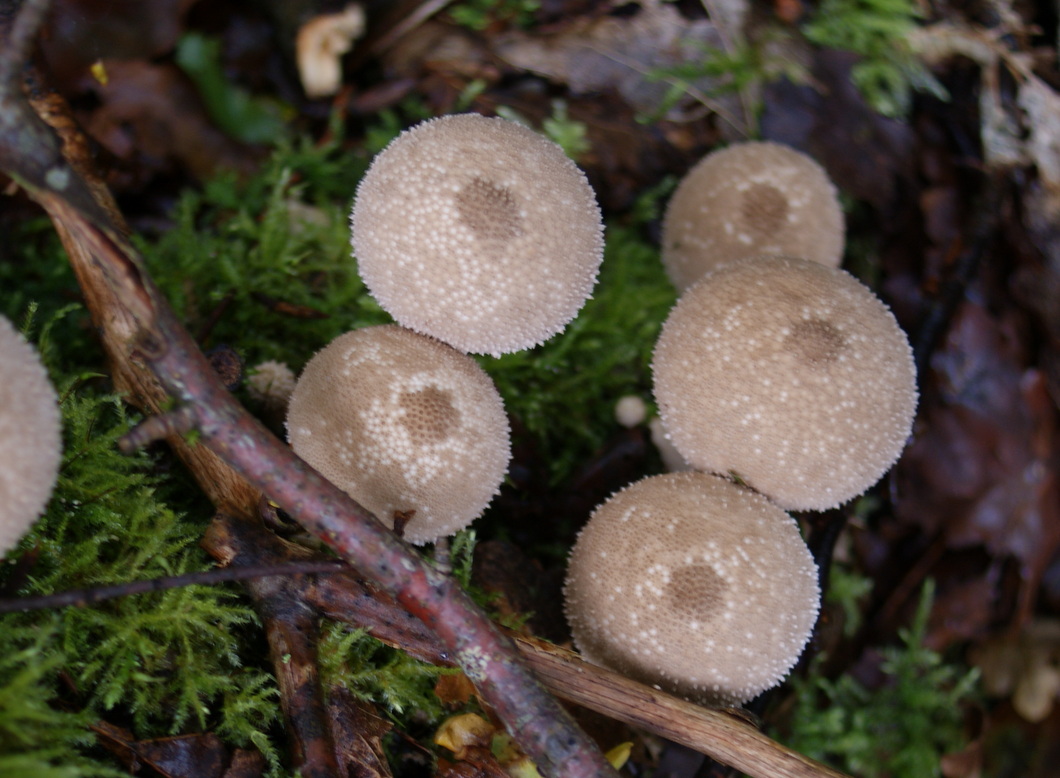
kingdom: Fungi
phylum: Basidiomycota
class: Agaricomycetes
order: Agaricales
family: Lycoperdaceae
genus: Lycoperdon
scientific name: Lycoperdon perlatum
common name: krystal-støvbold
